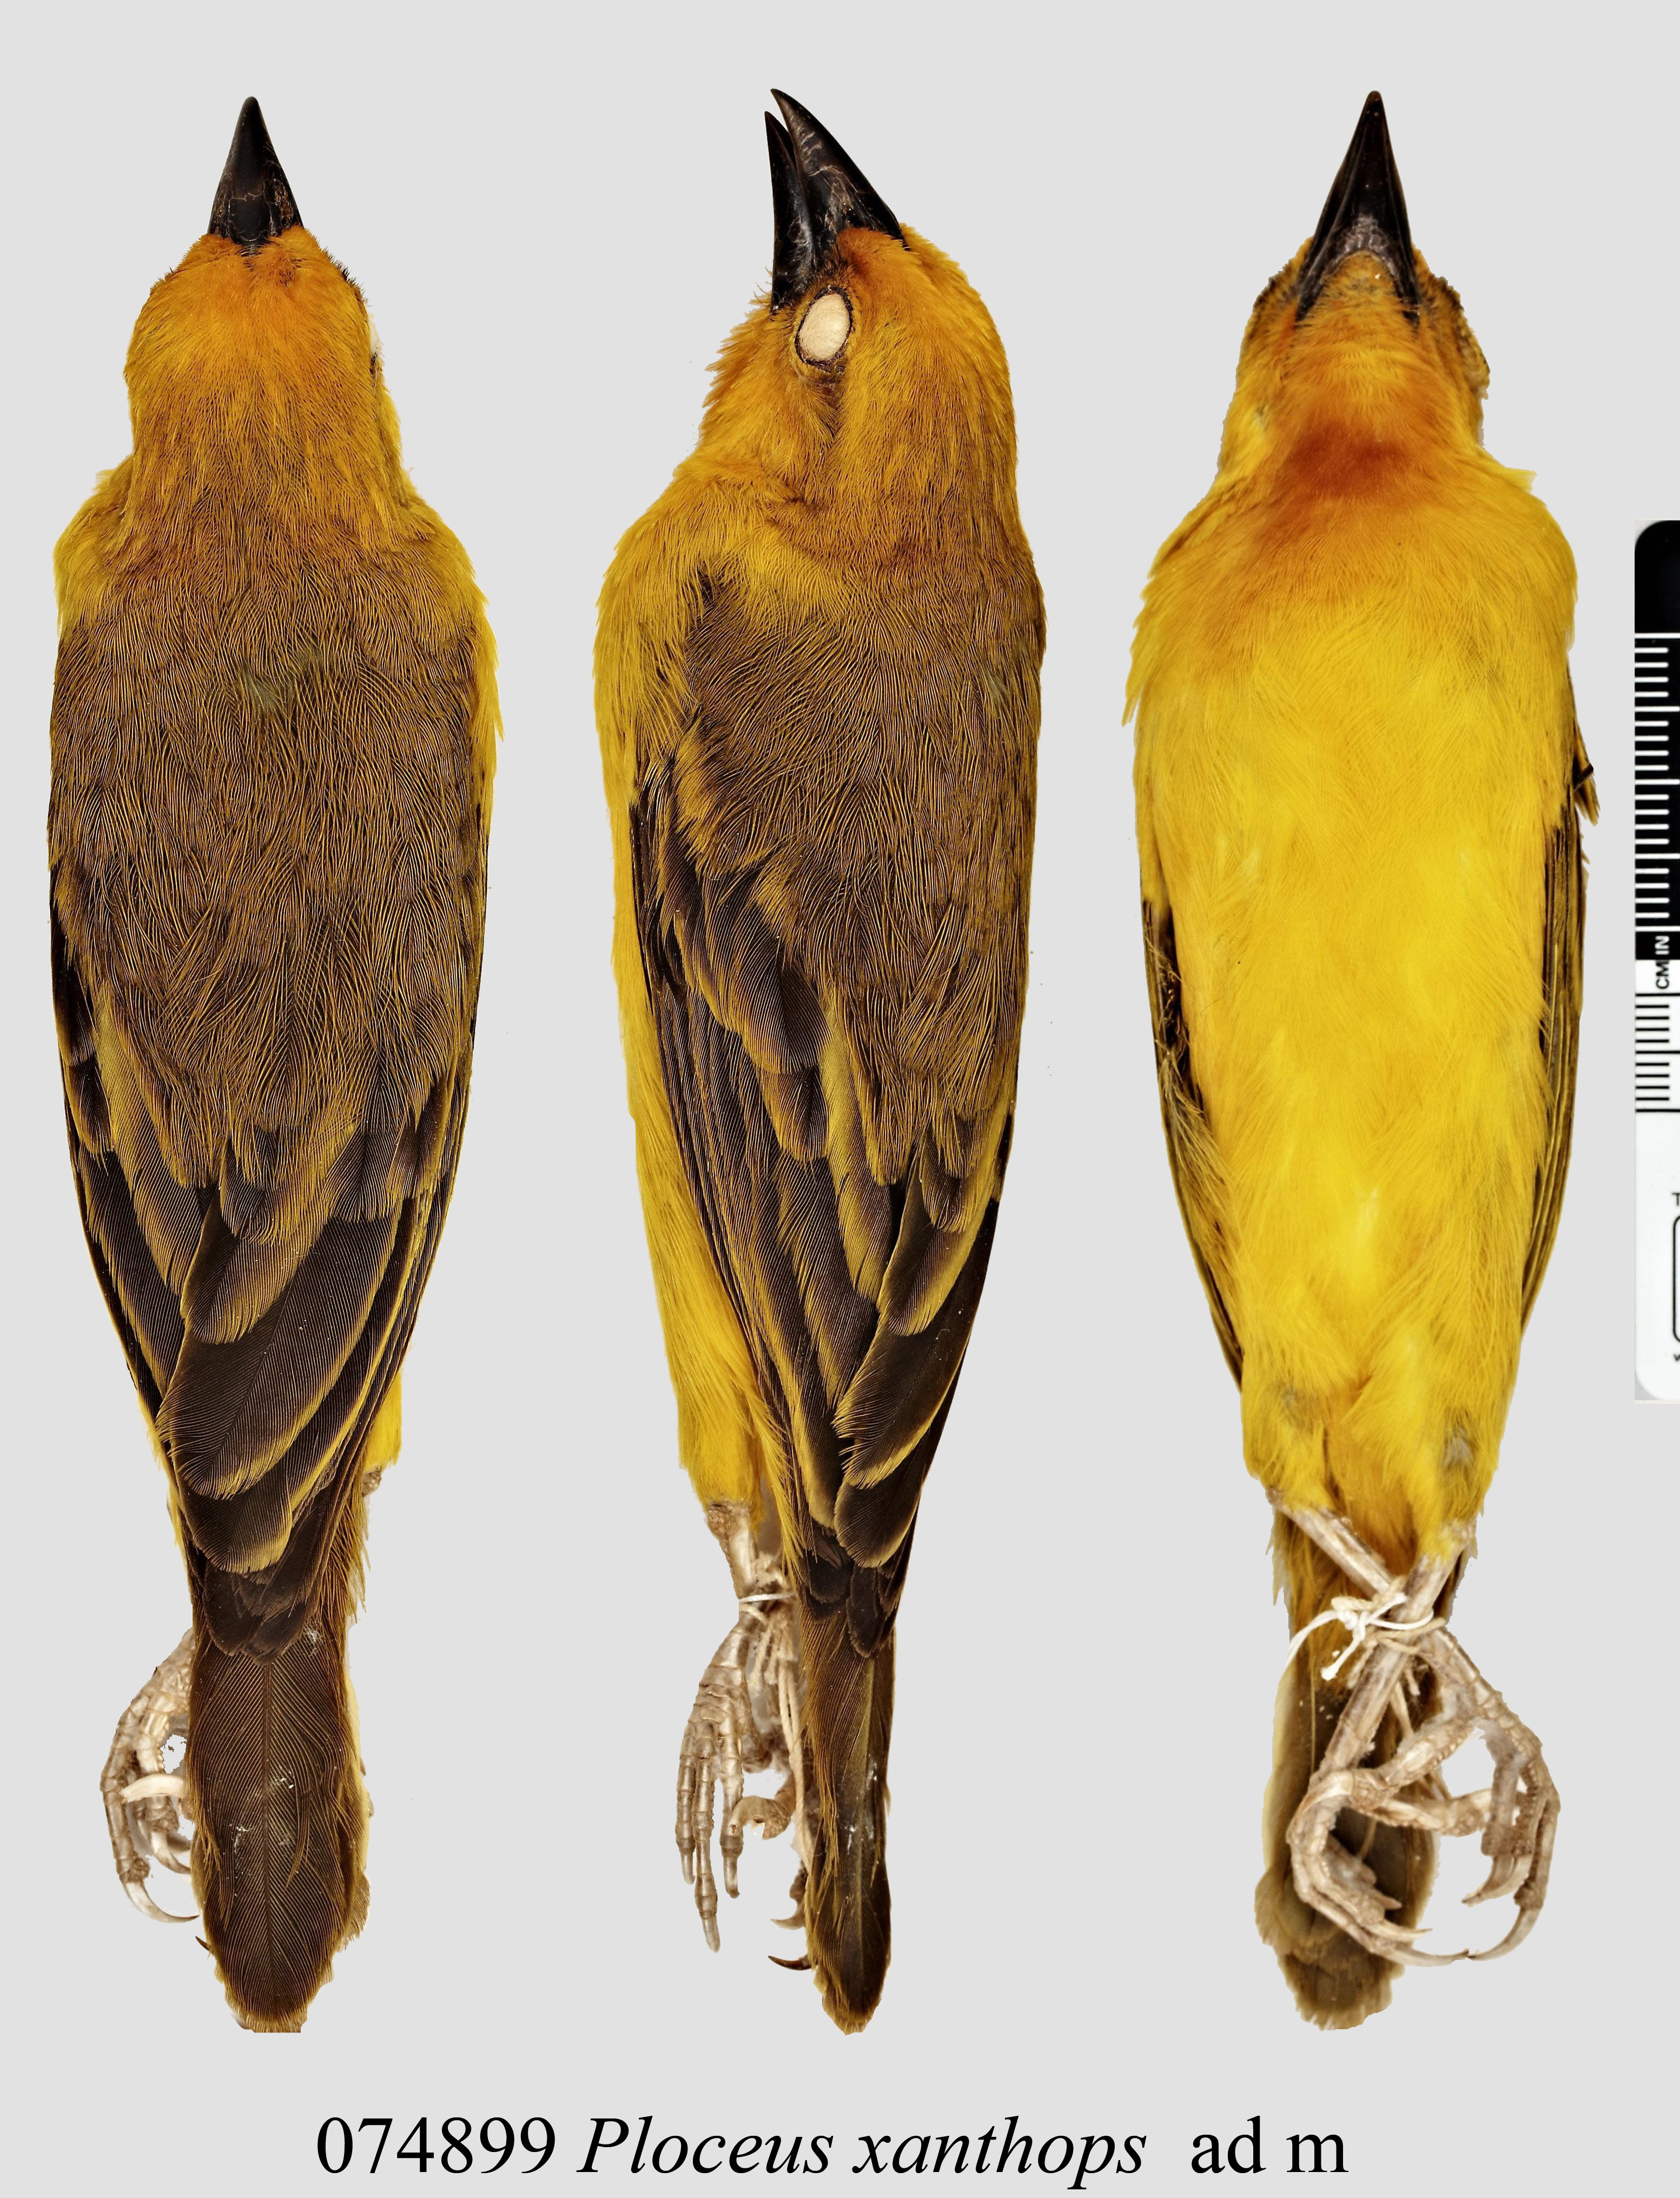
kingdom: Animalia
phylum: Chordata
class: Aves
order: Passeriformes
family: Ploceidae
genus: Ploceus
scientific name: Ploceus xanthops
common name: Holub's golden weaver
